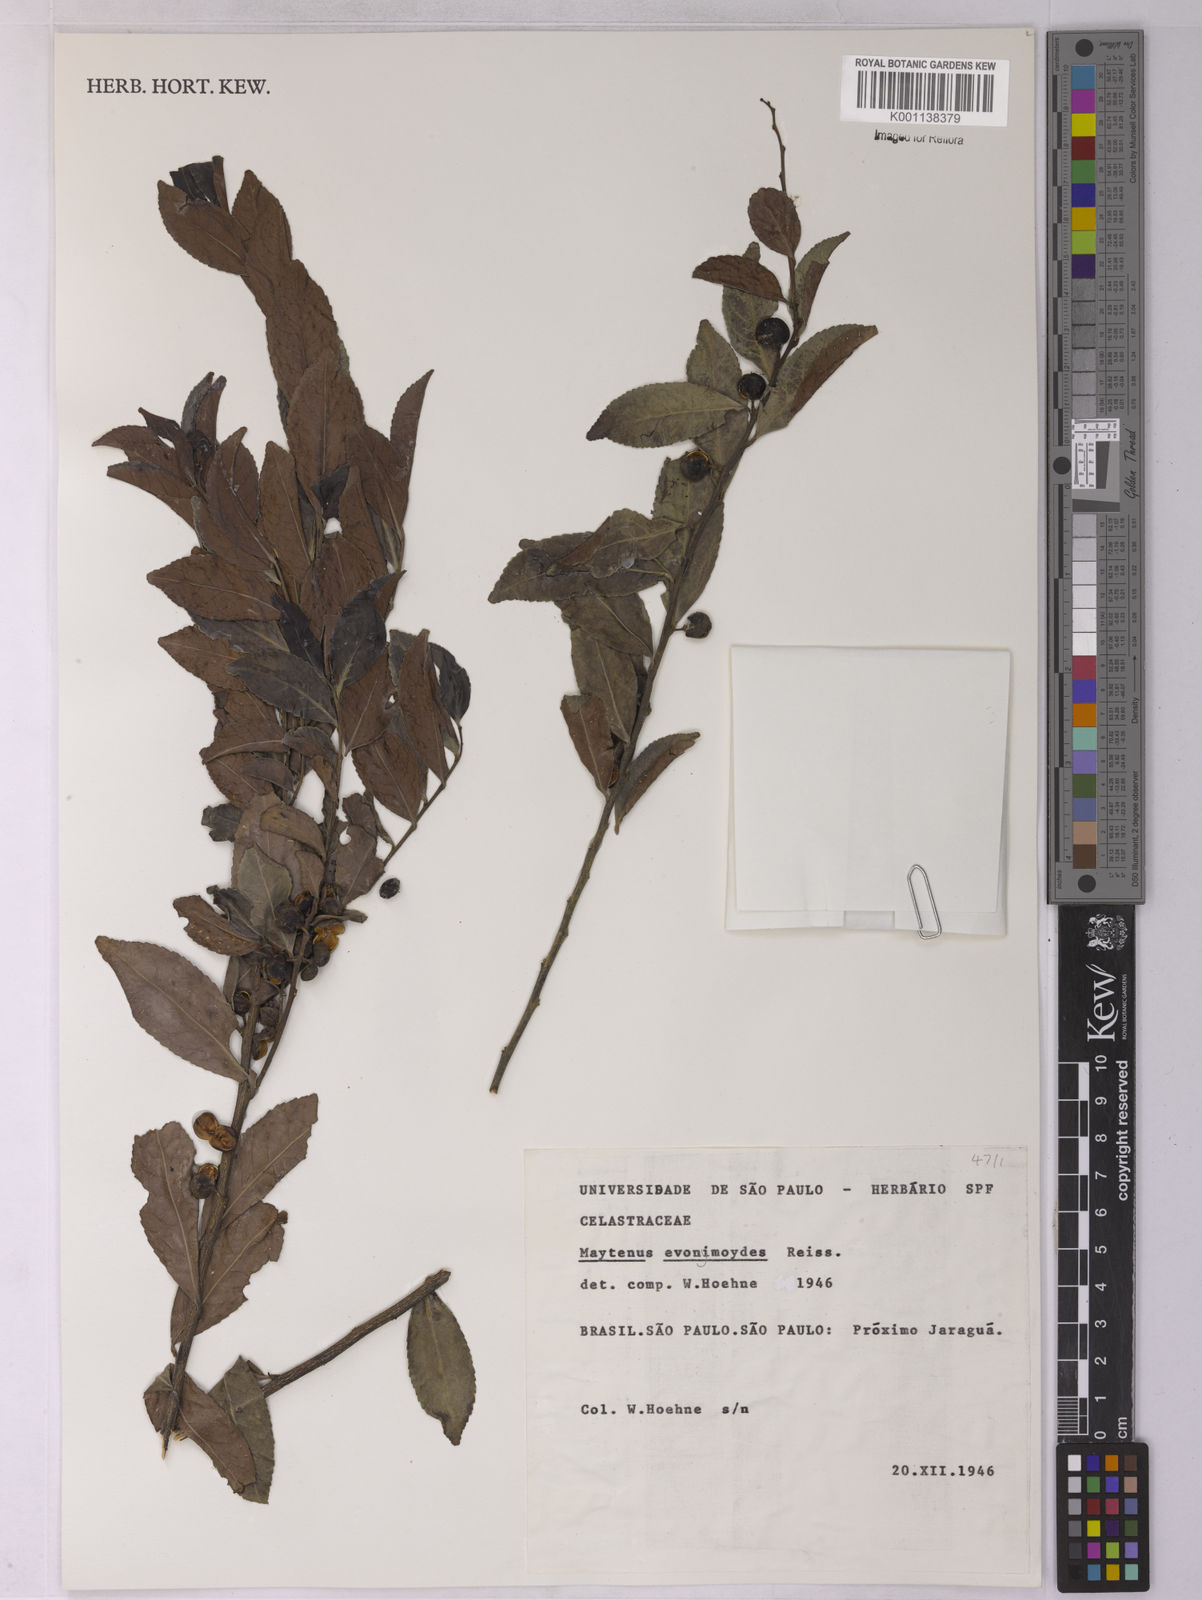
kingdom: Plantae
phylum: Tracheophyta
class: Magnoliopsida
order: Celastrales
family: Celastraceae
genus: Monteverdia
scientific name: Monteverdia evonymoides
